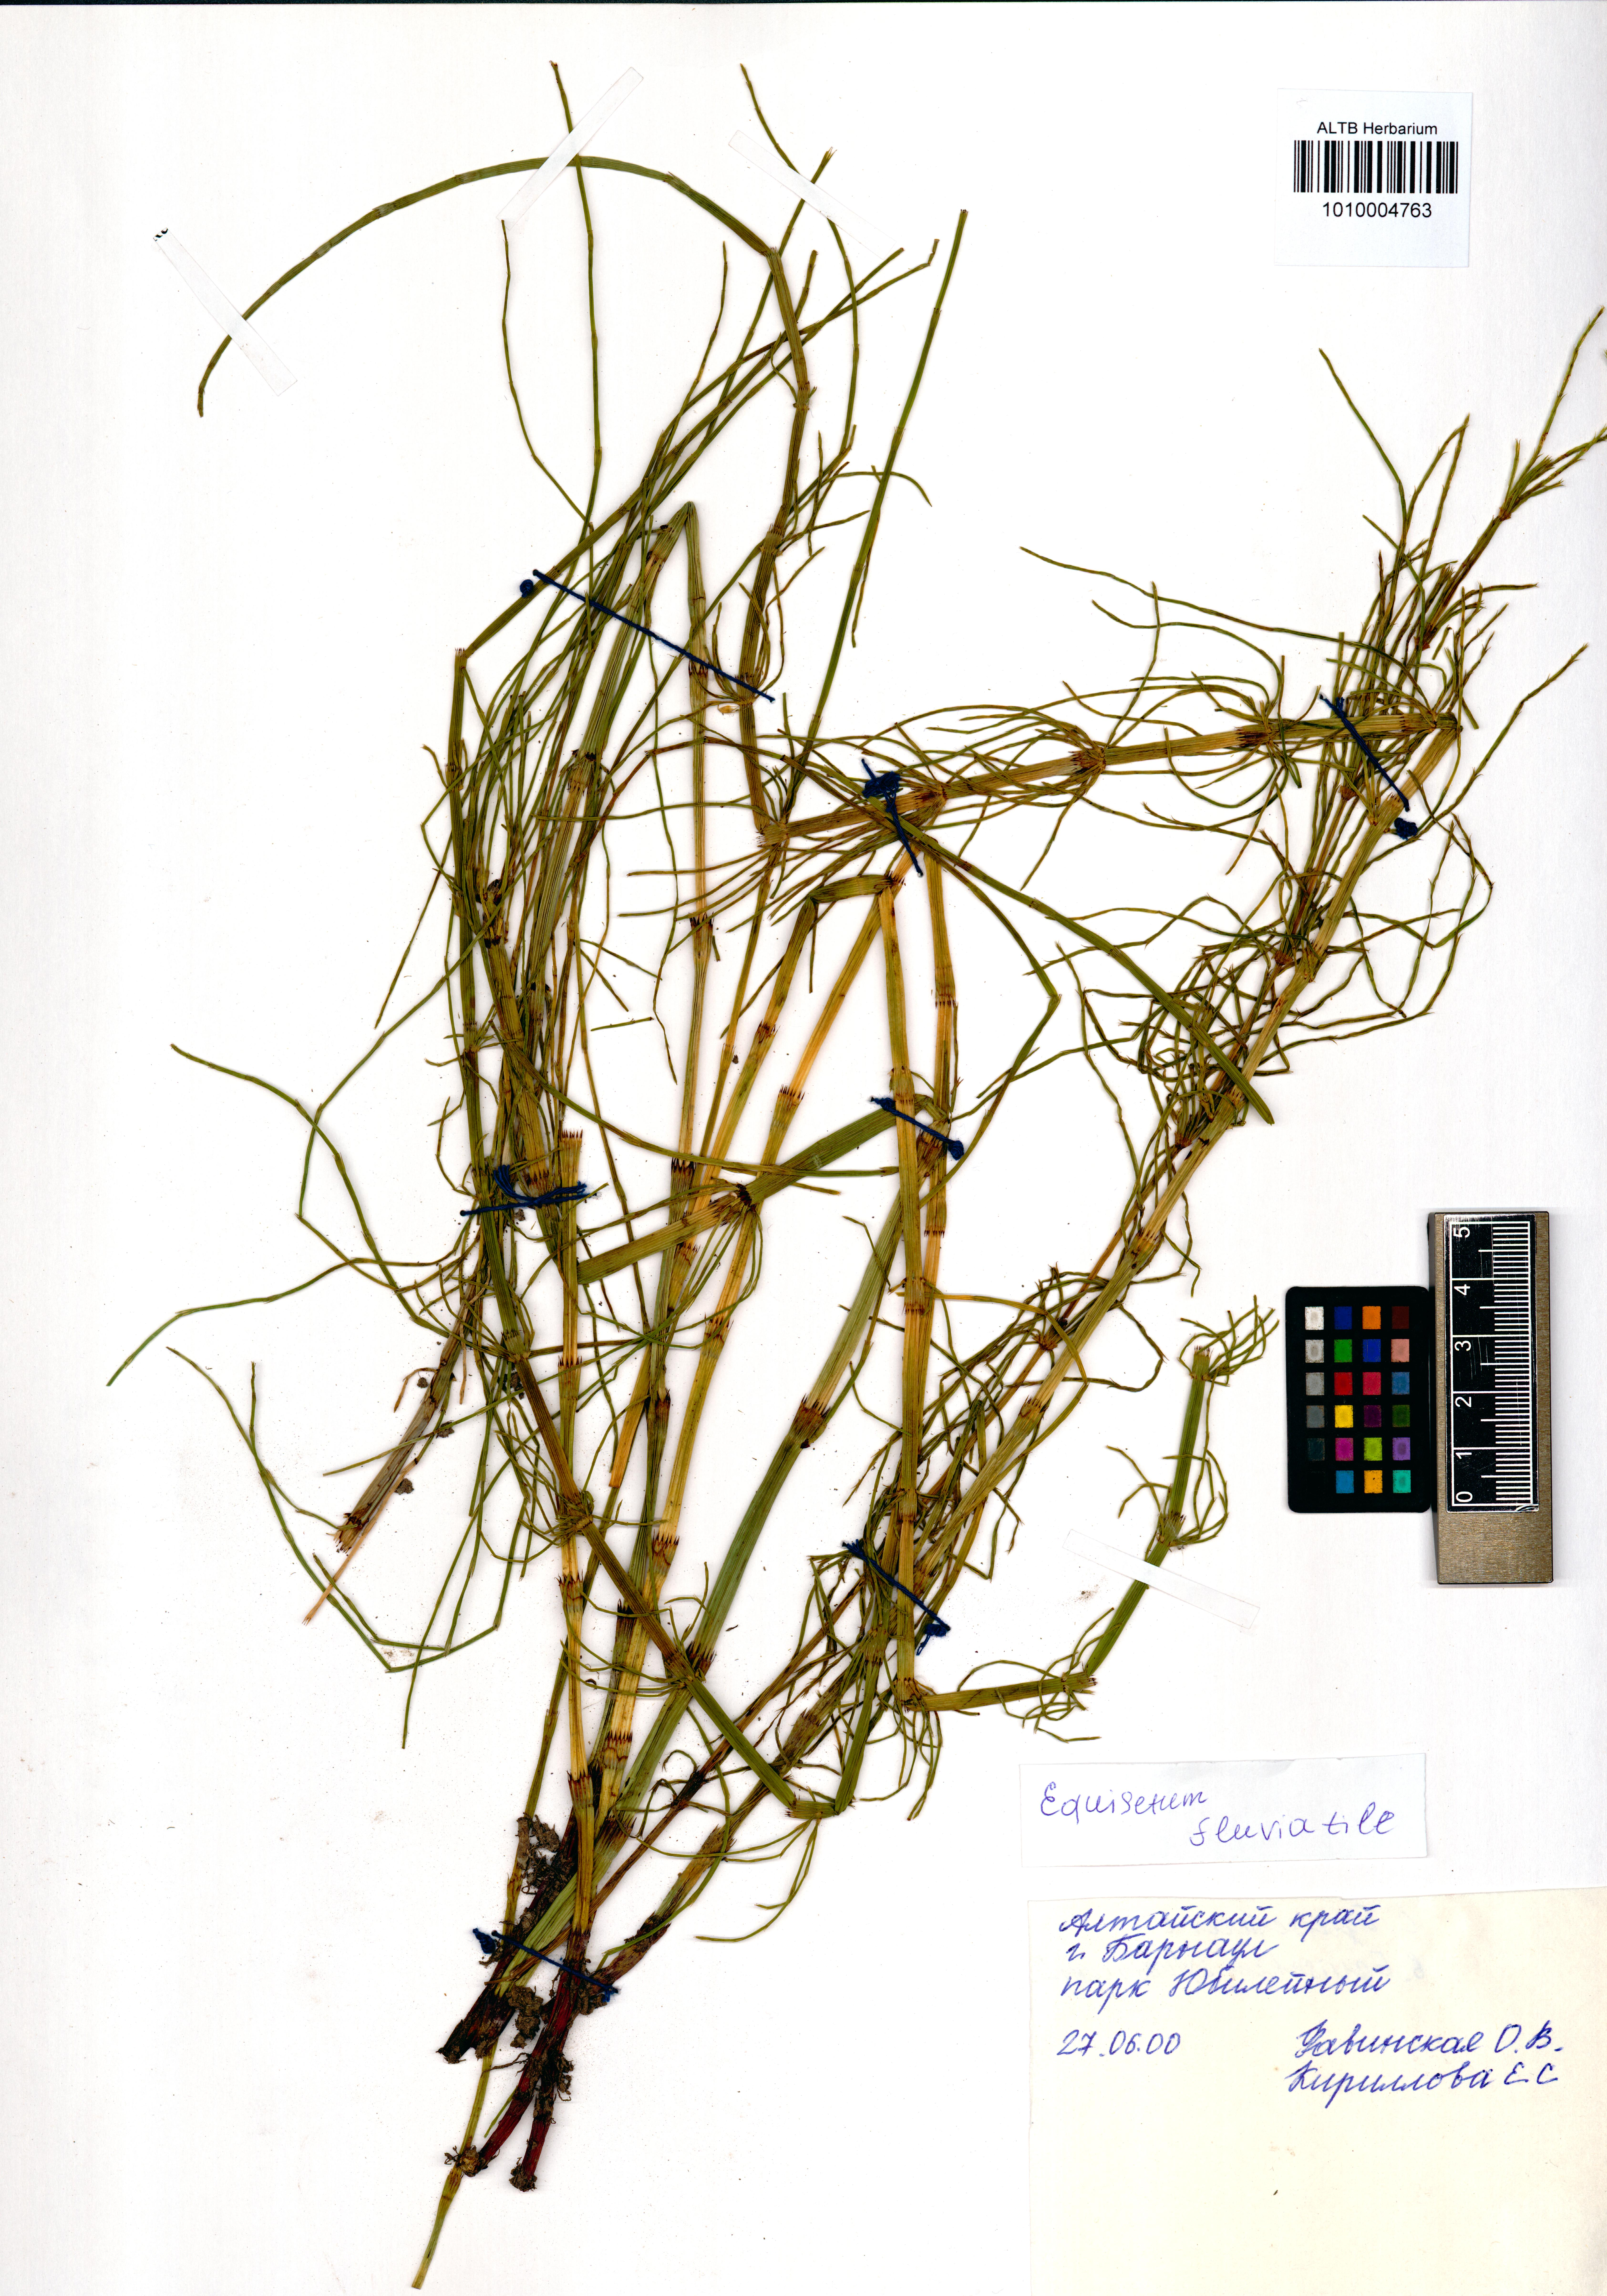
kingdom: Plantae
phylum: Tracheophyta
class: Polypodiopsida
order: Equisetales
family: Equisetaceae
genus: Equisetum
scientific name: Equisetum fluviatile
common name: Water horsetail
